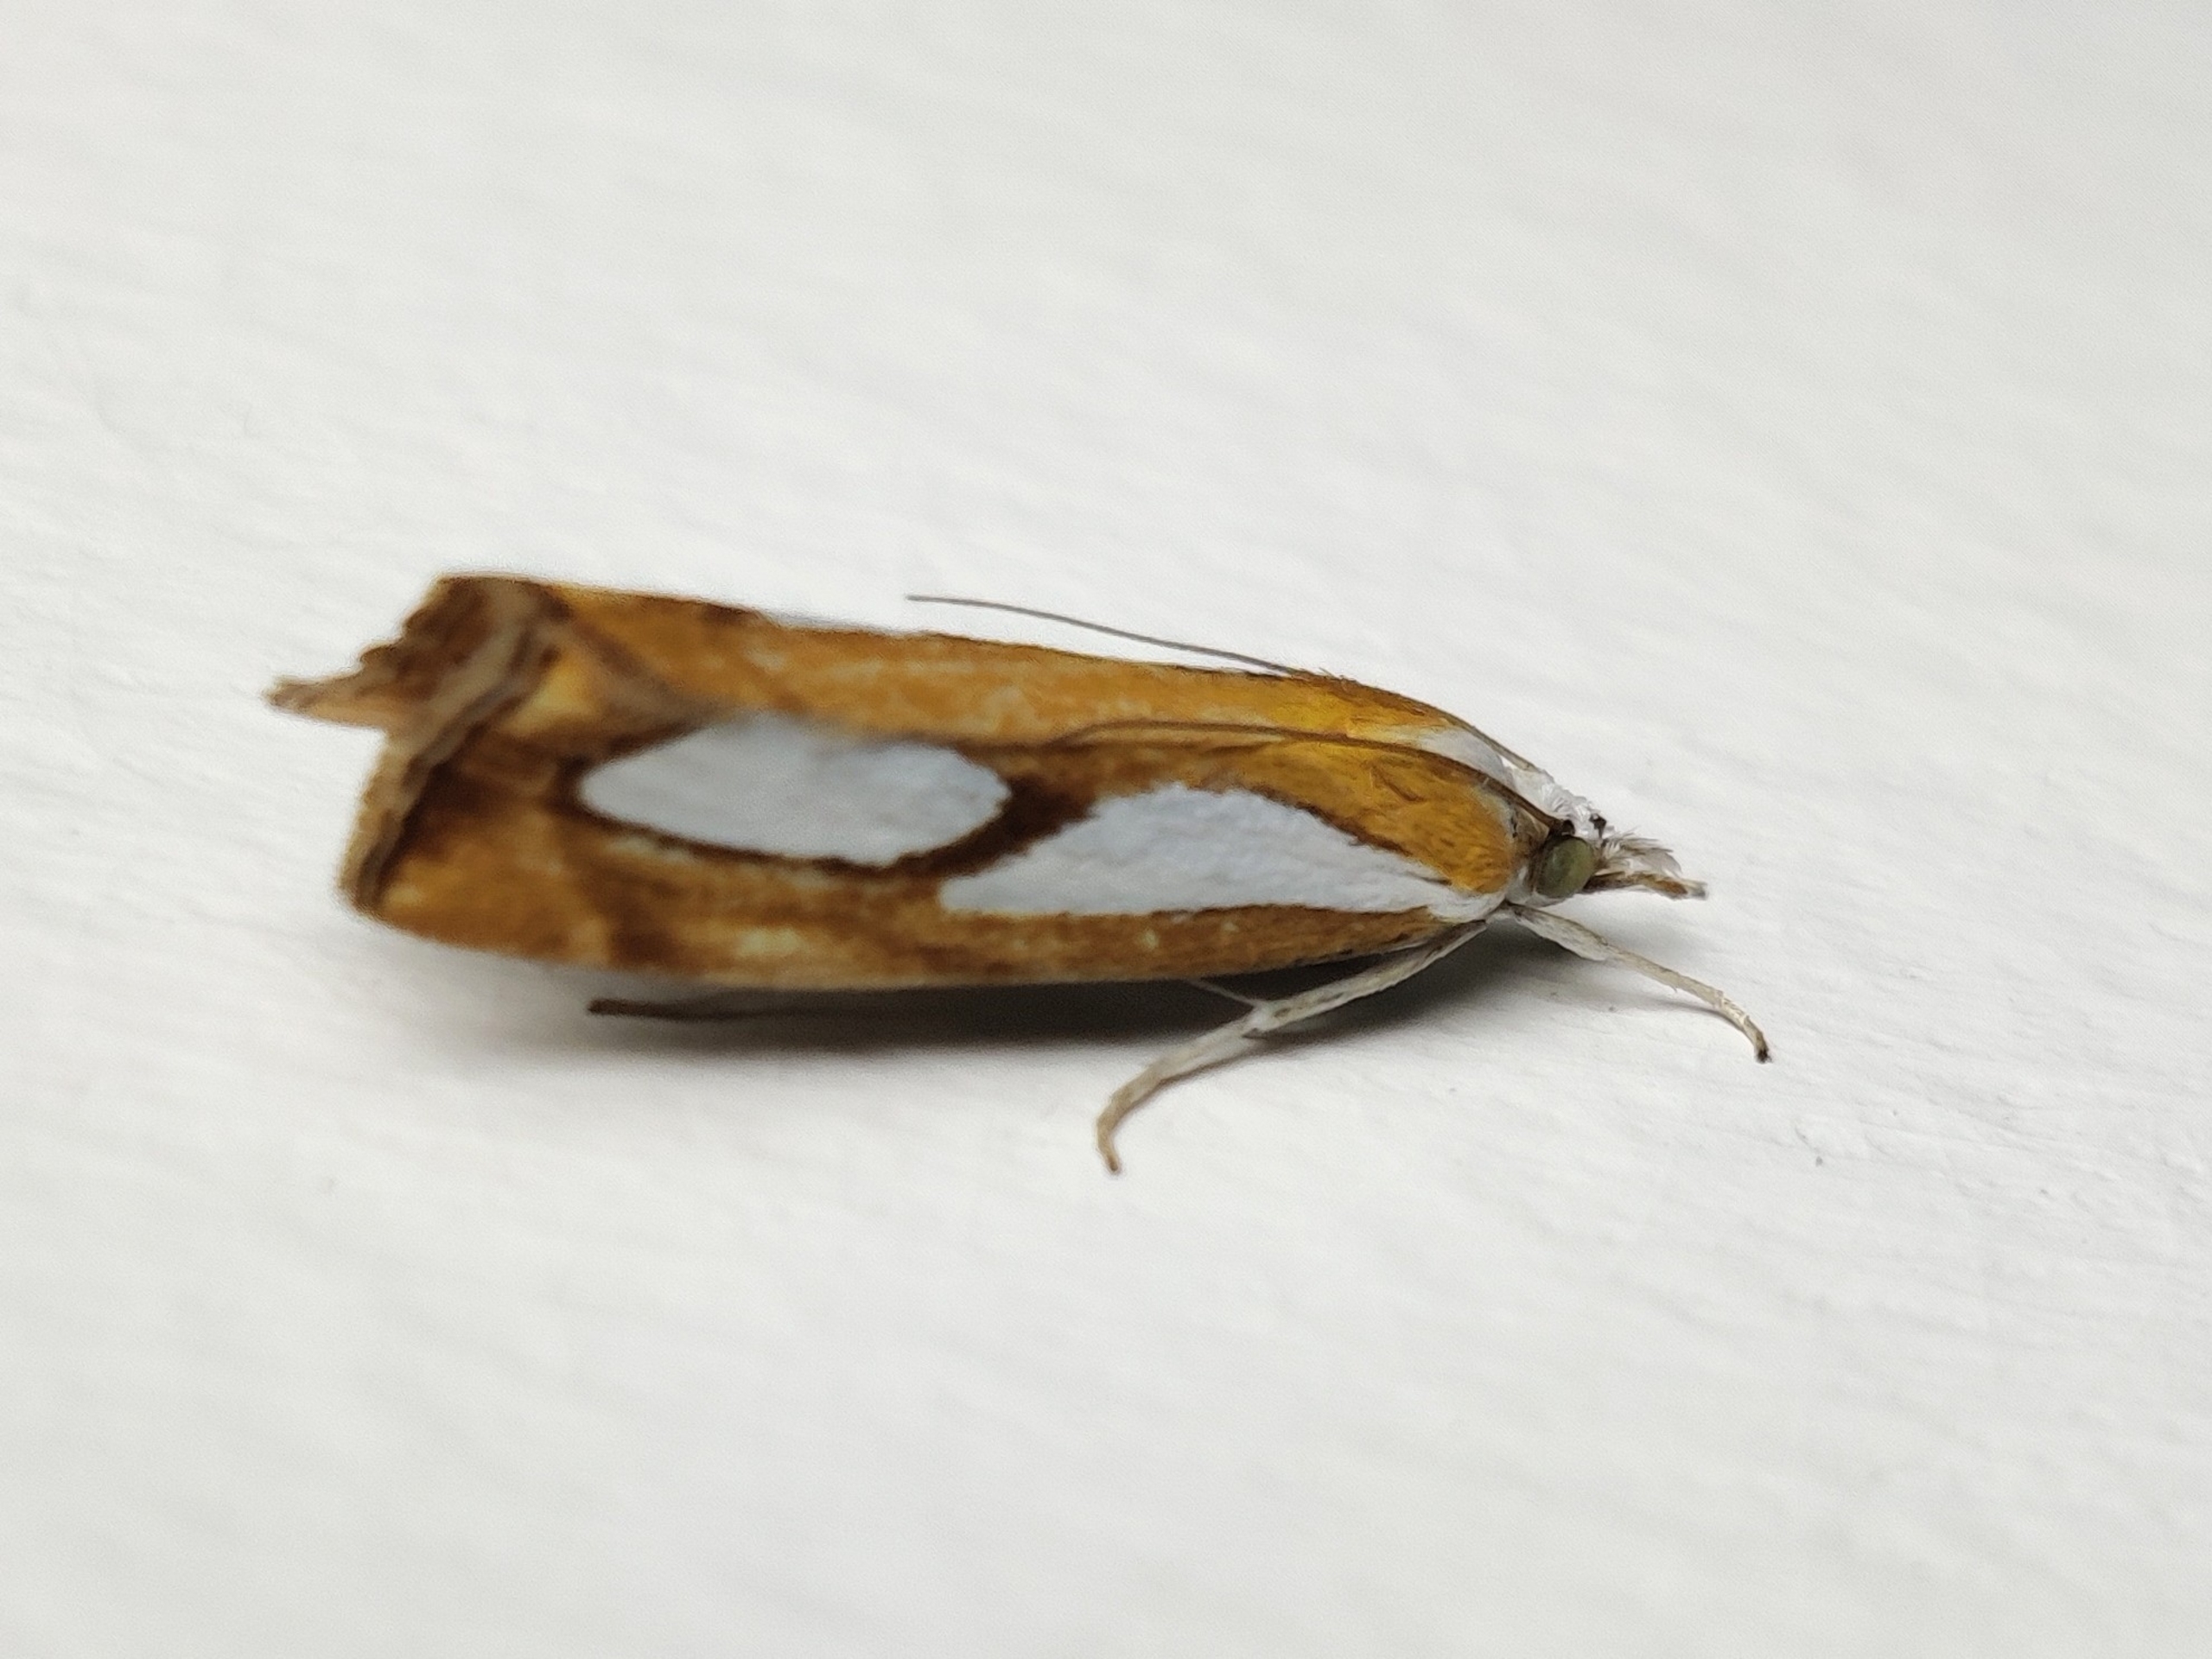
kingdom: Animalia
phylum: Arthropoda
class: Insecta
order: Lepidoptera
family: Crambidae
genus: Catoptria
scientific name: Catoptria pinella
